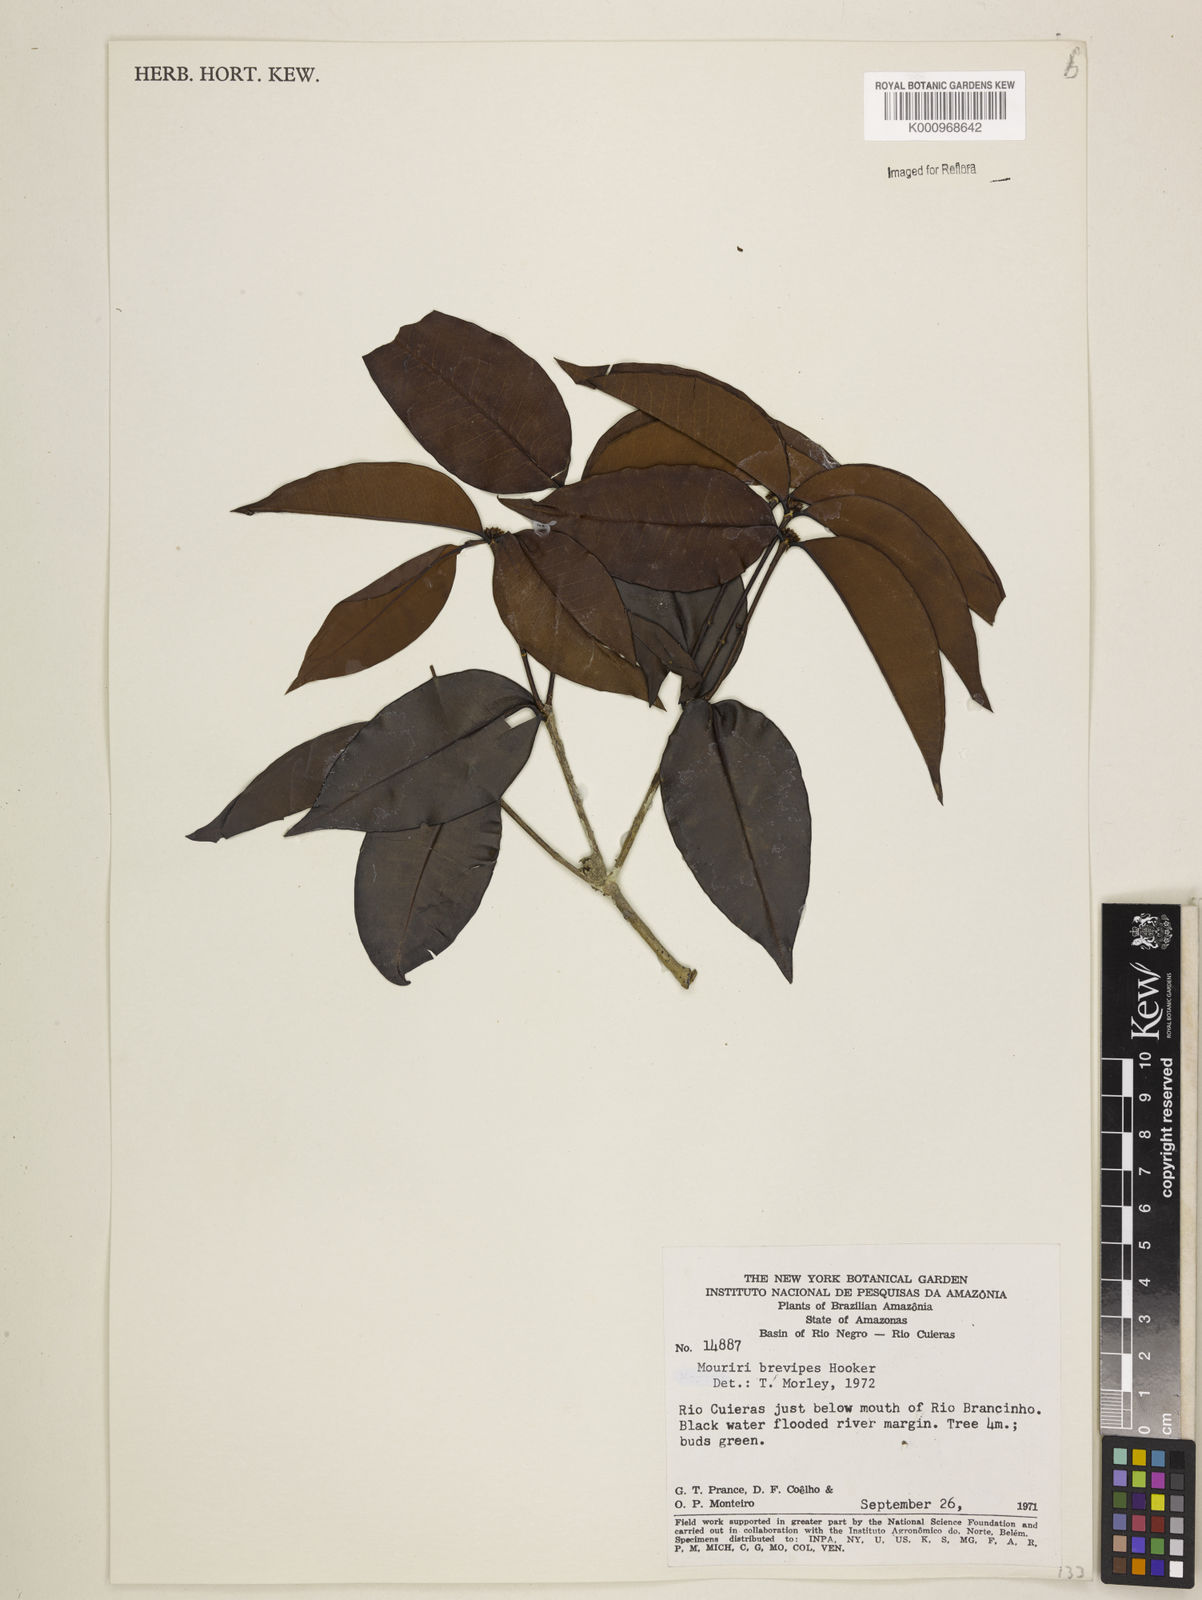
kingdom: Plantae
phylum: Tracheophyta
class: Magnoliopsida
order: Myrtales
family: Melastomataceae
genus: Mouriri
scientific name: Mouriri
